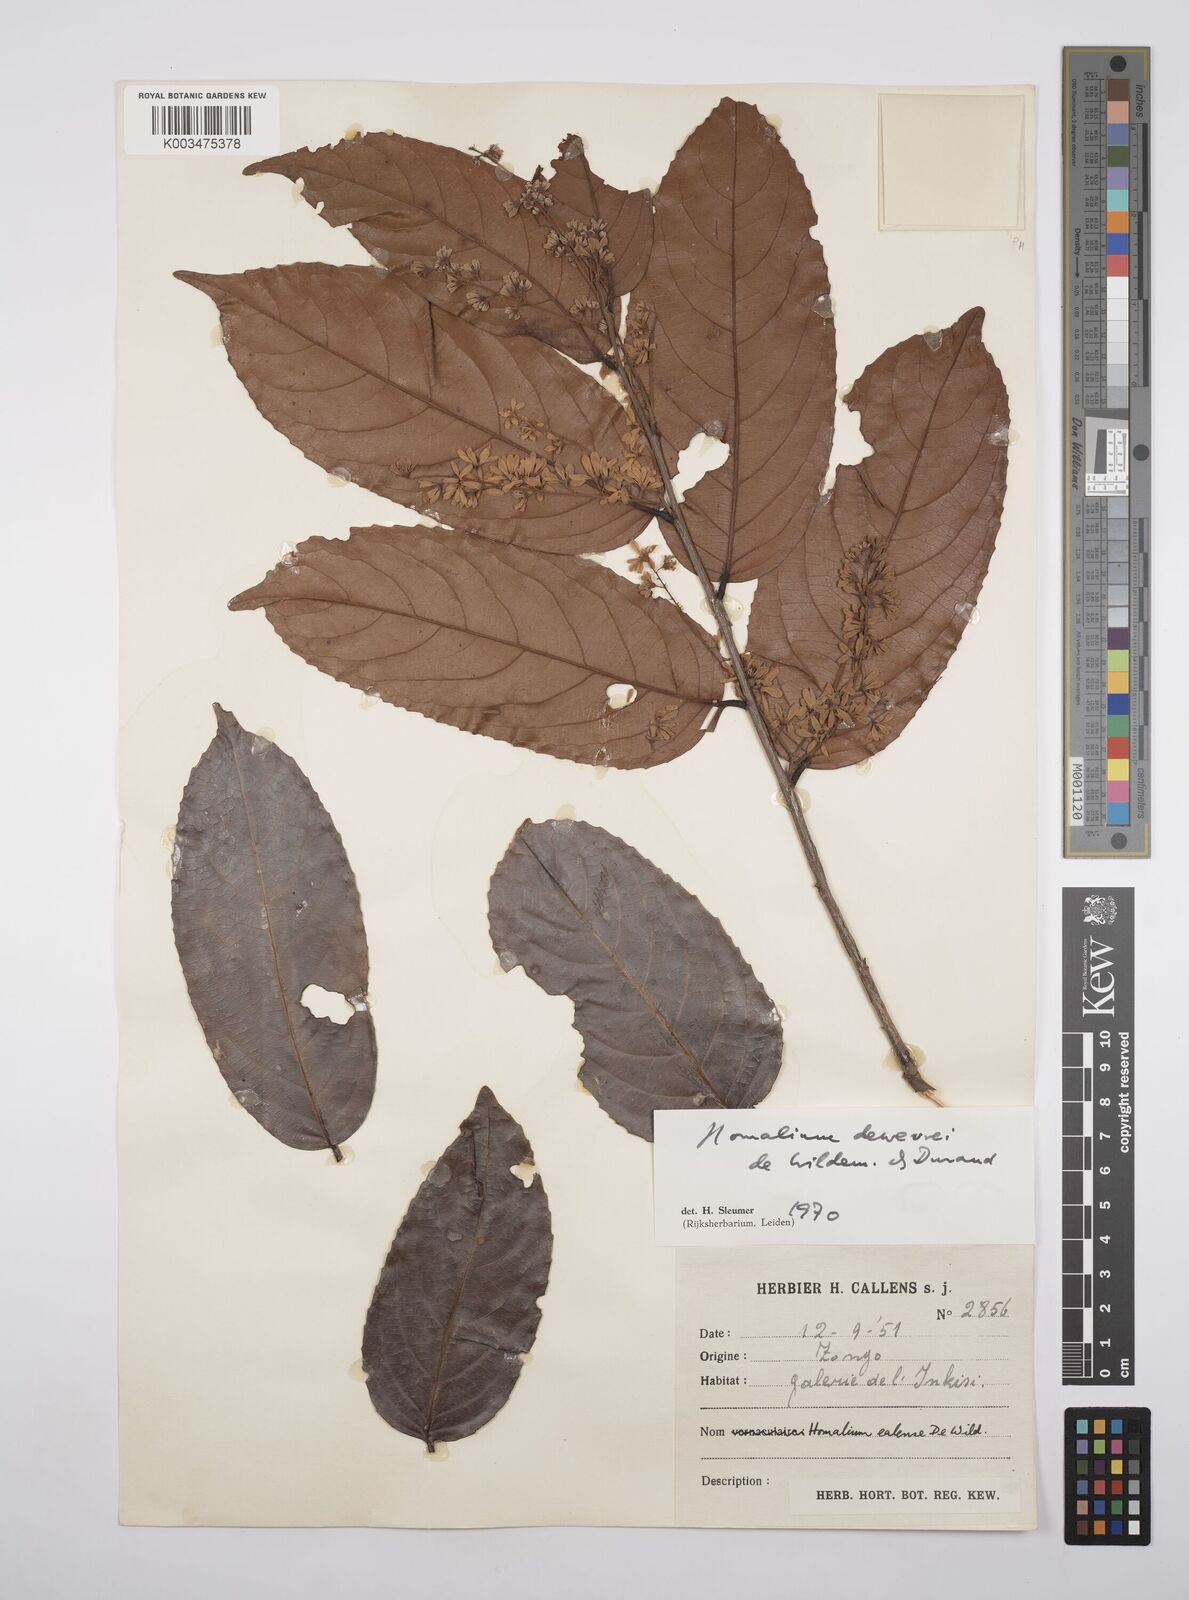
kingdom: Plantae
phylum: Tracheophyta
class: Magnoliopsida
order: Malpighiales
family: Salicaceae
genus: Homalium
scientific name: Homalium dewevrei
